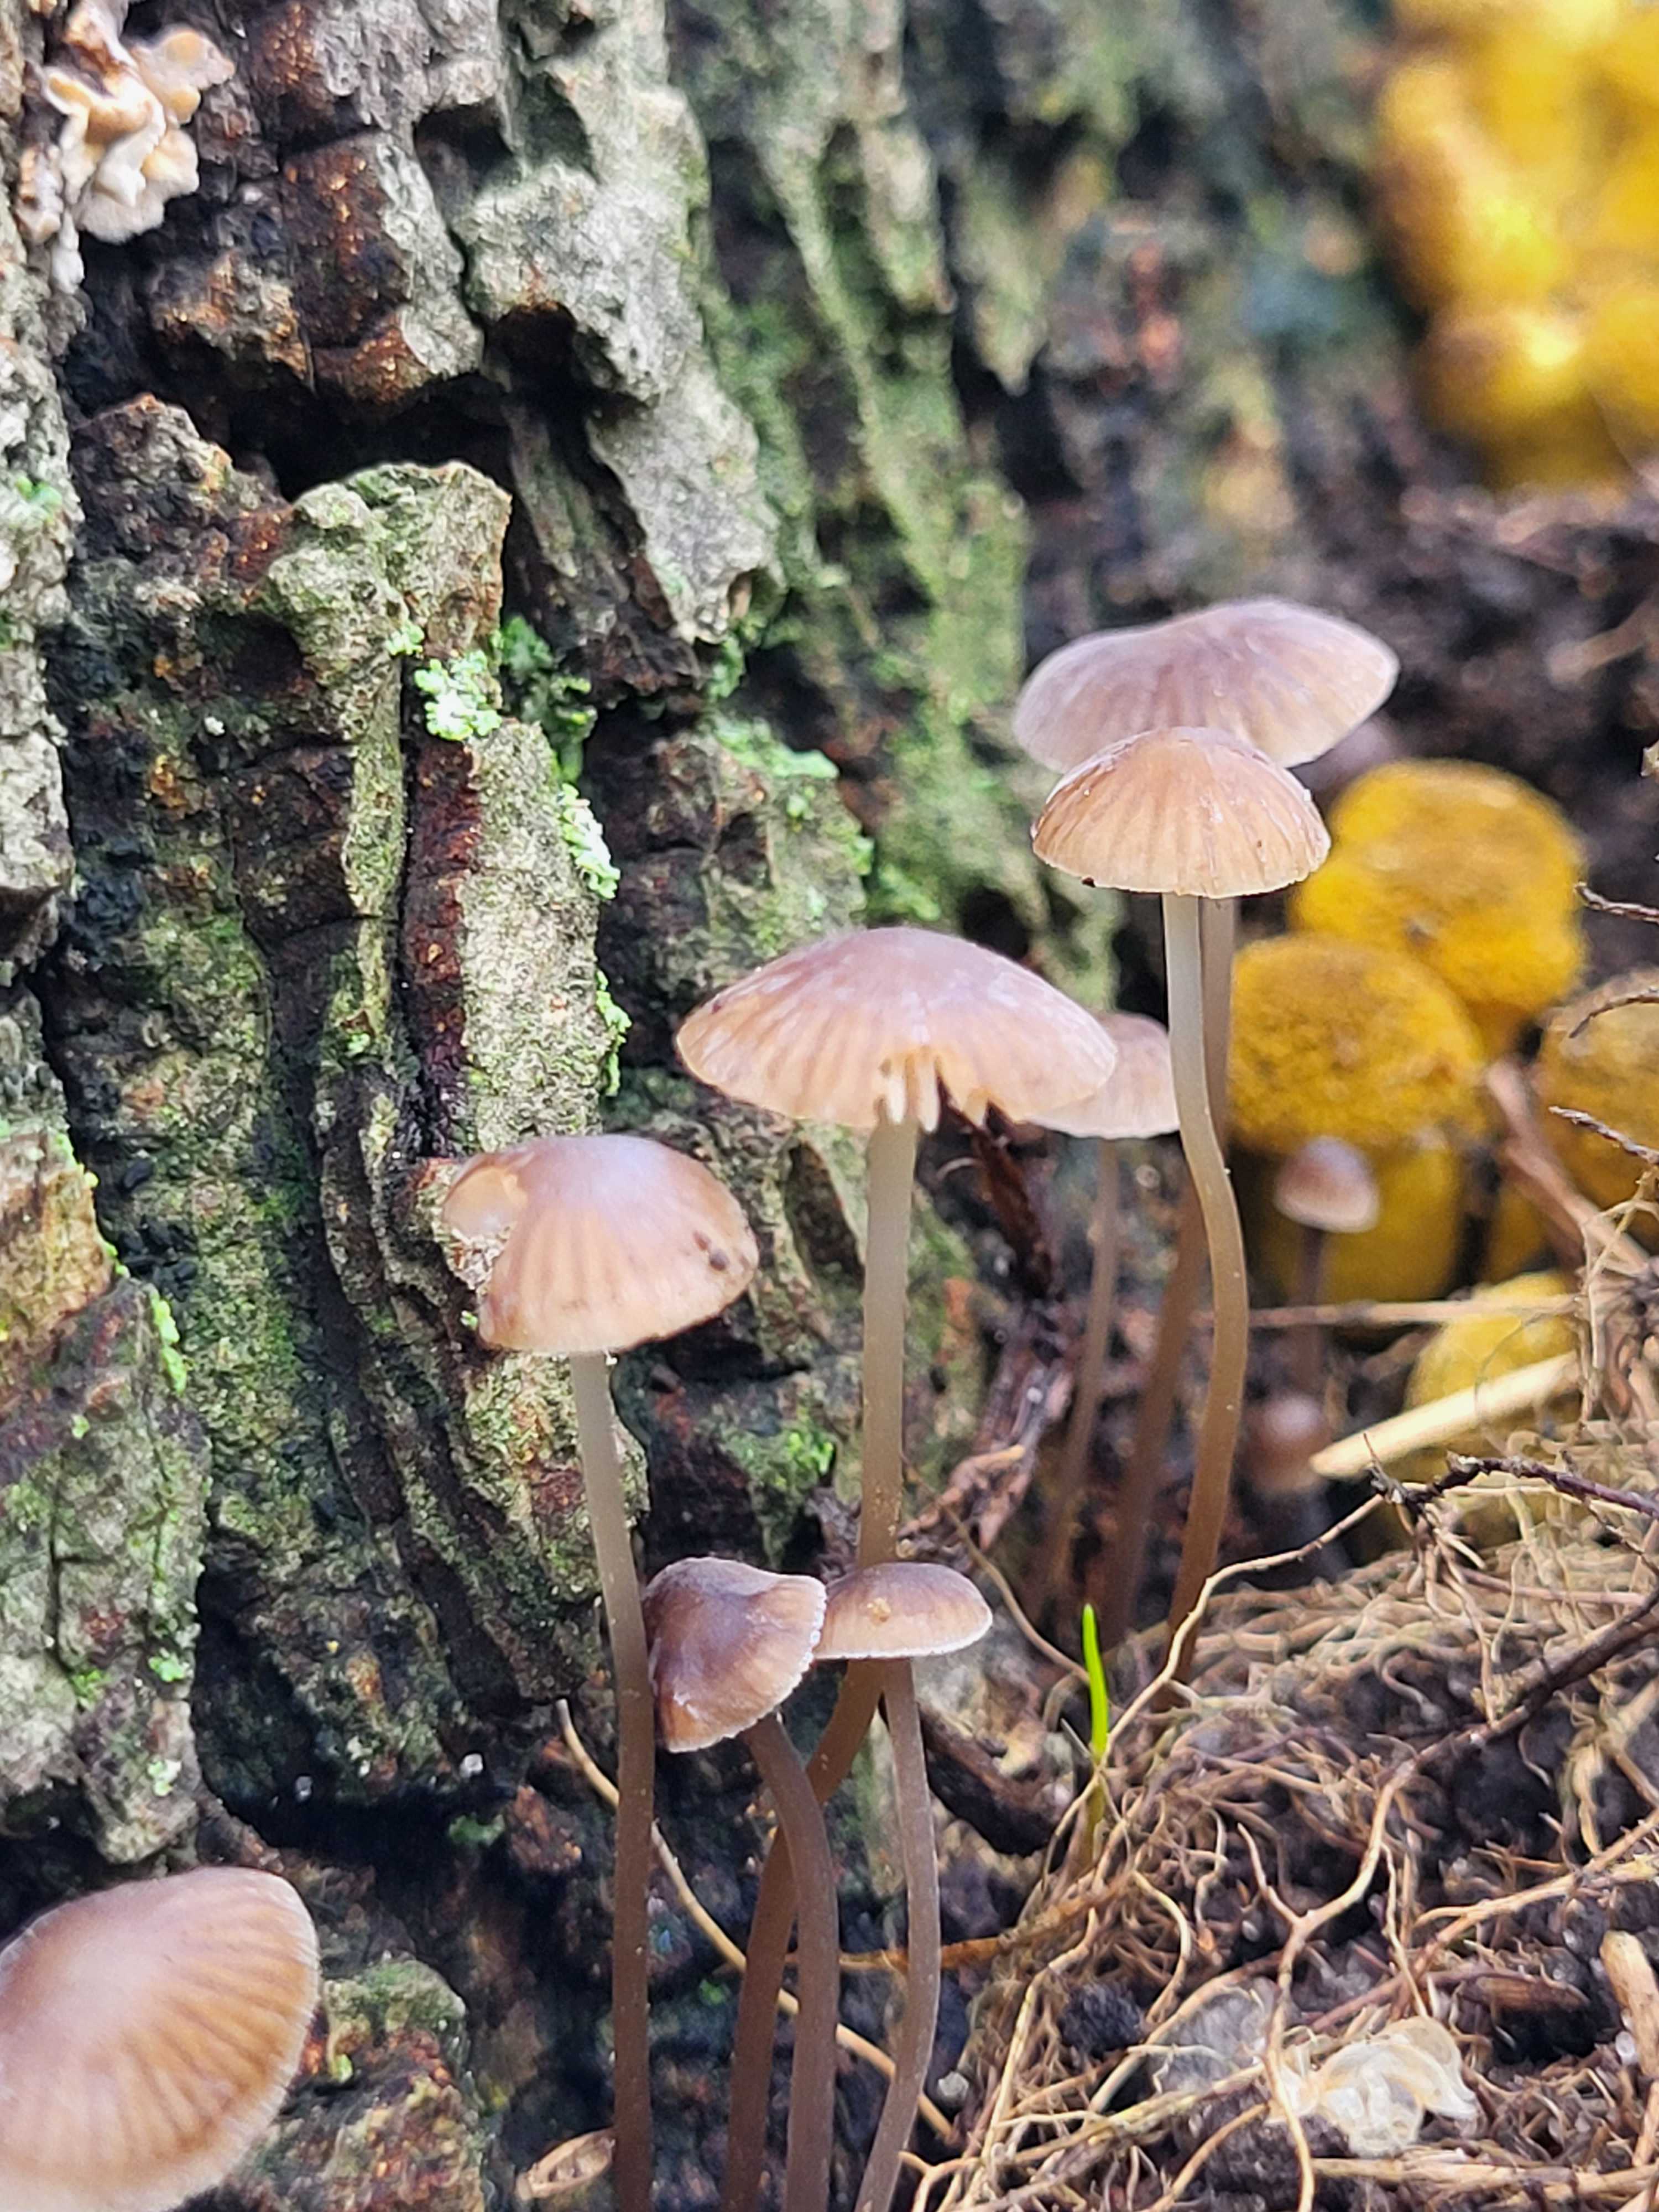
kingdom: Fungi
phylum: Basidiomycota
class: Agaricomycetes
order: Agaricales
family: Mycenaceae
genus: Mycena
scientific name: Mycena
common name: huesvamp
